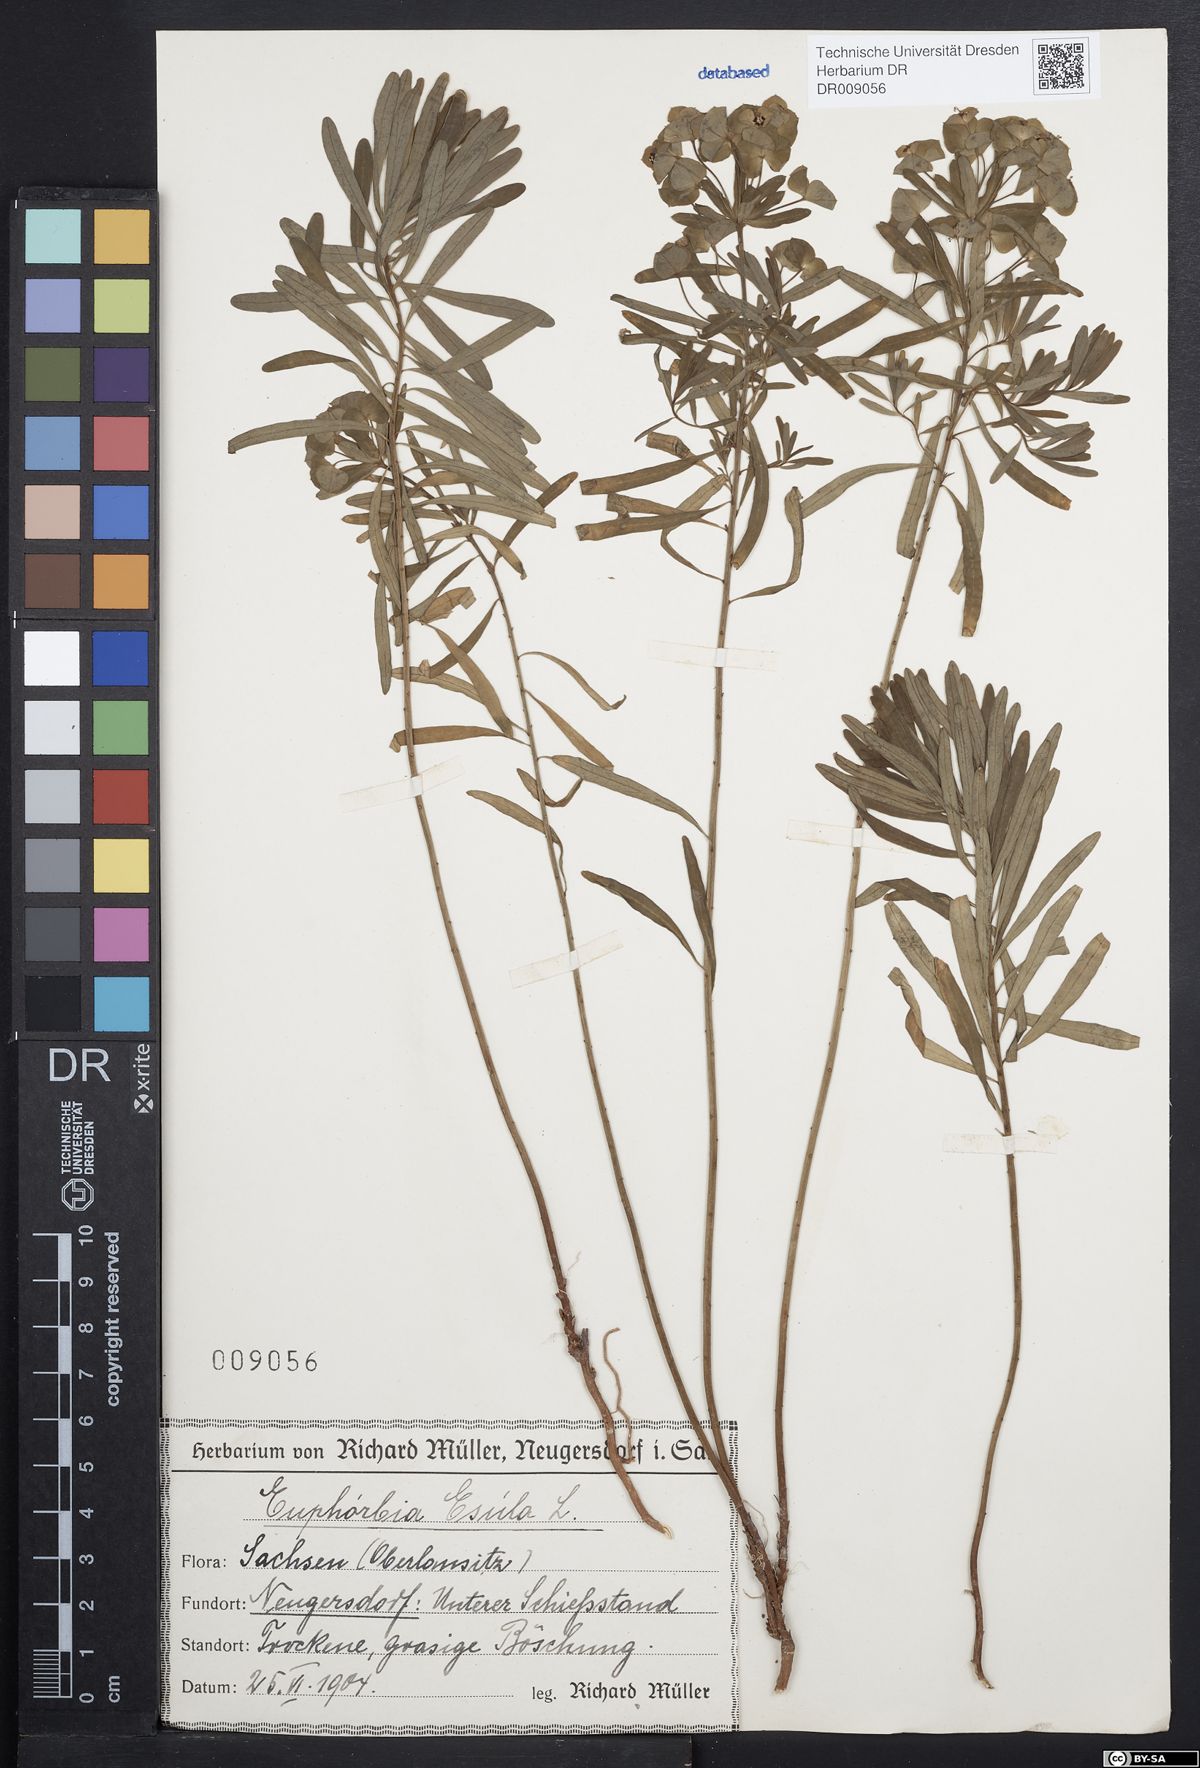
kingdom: Plantae
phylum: Tracheophyta
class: Magnoliopsida
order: Malpighiales
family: Euphorbiaceae
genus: Euphorbia
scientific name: Euphorbia esula
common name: Leafy spurge
